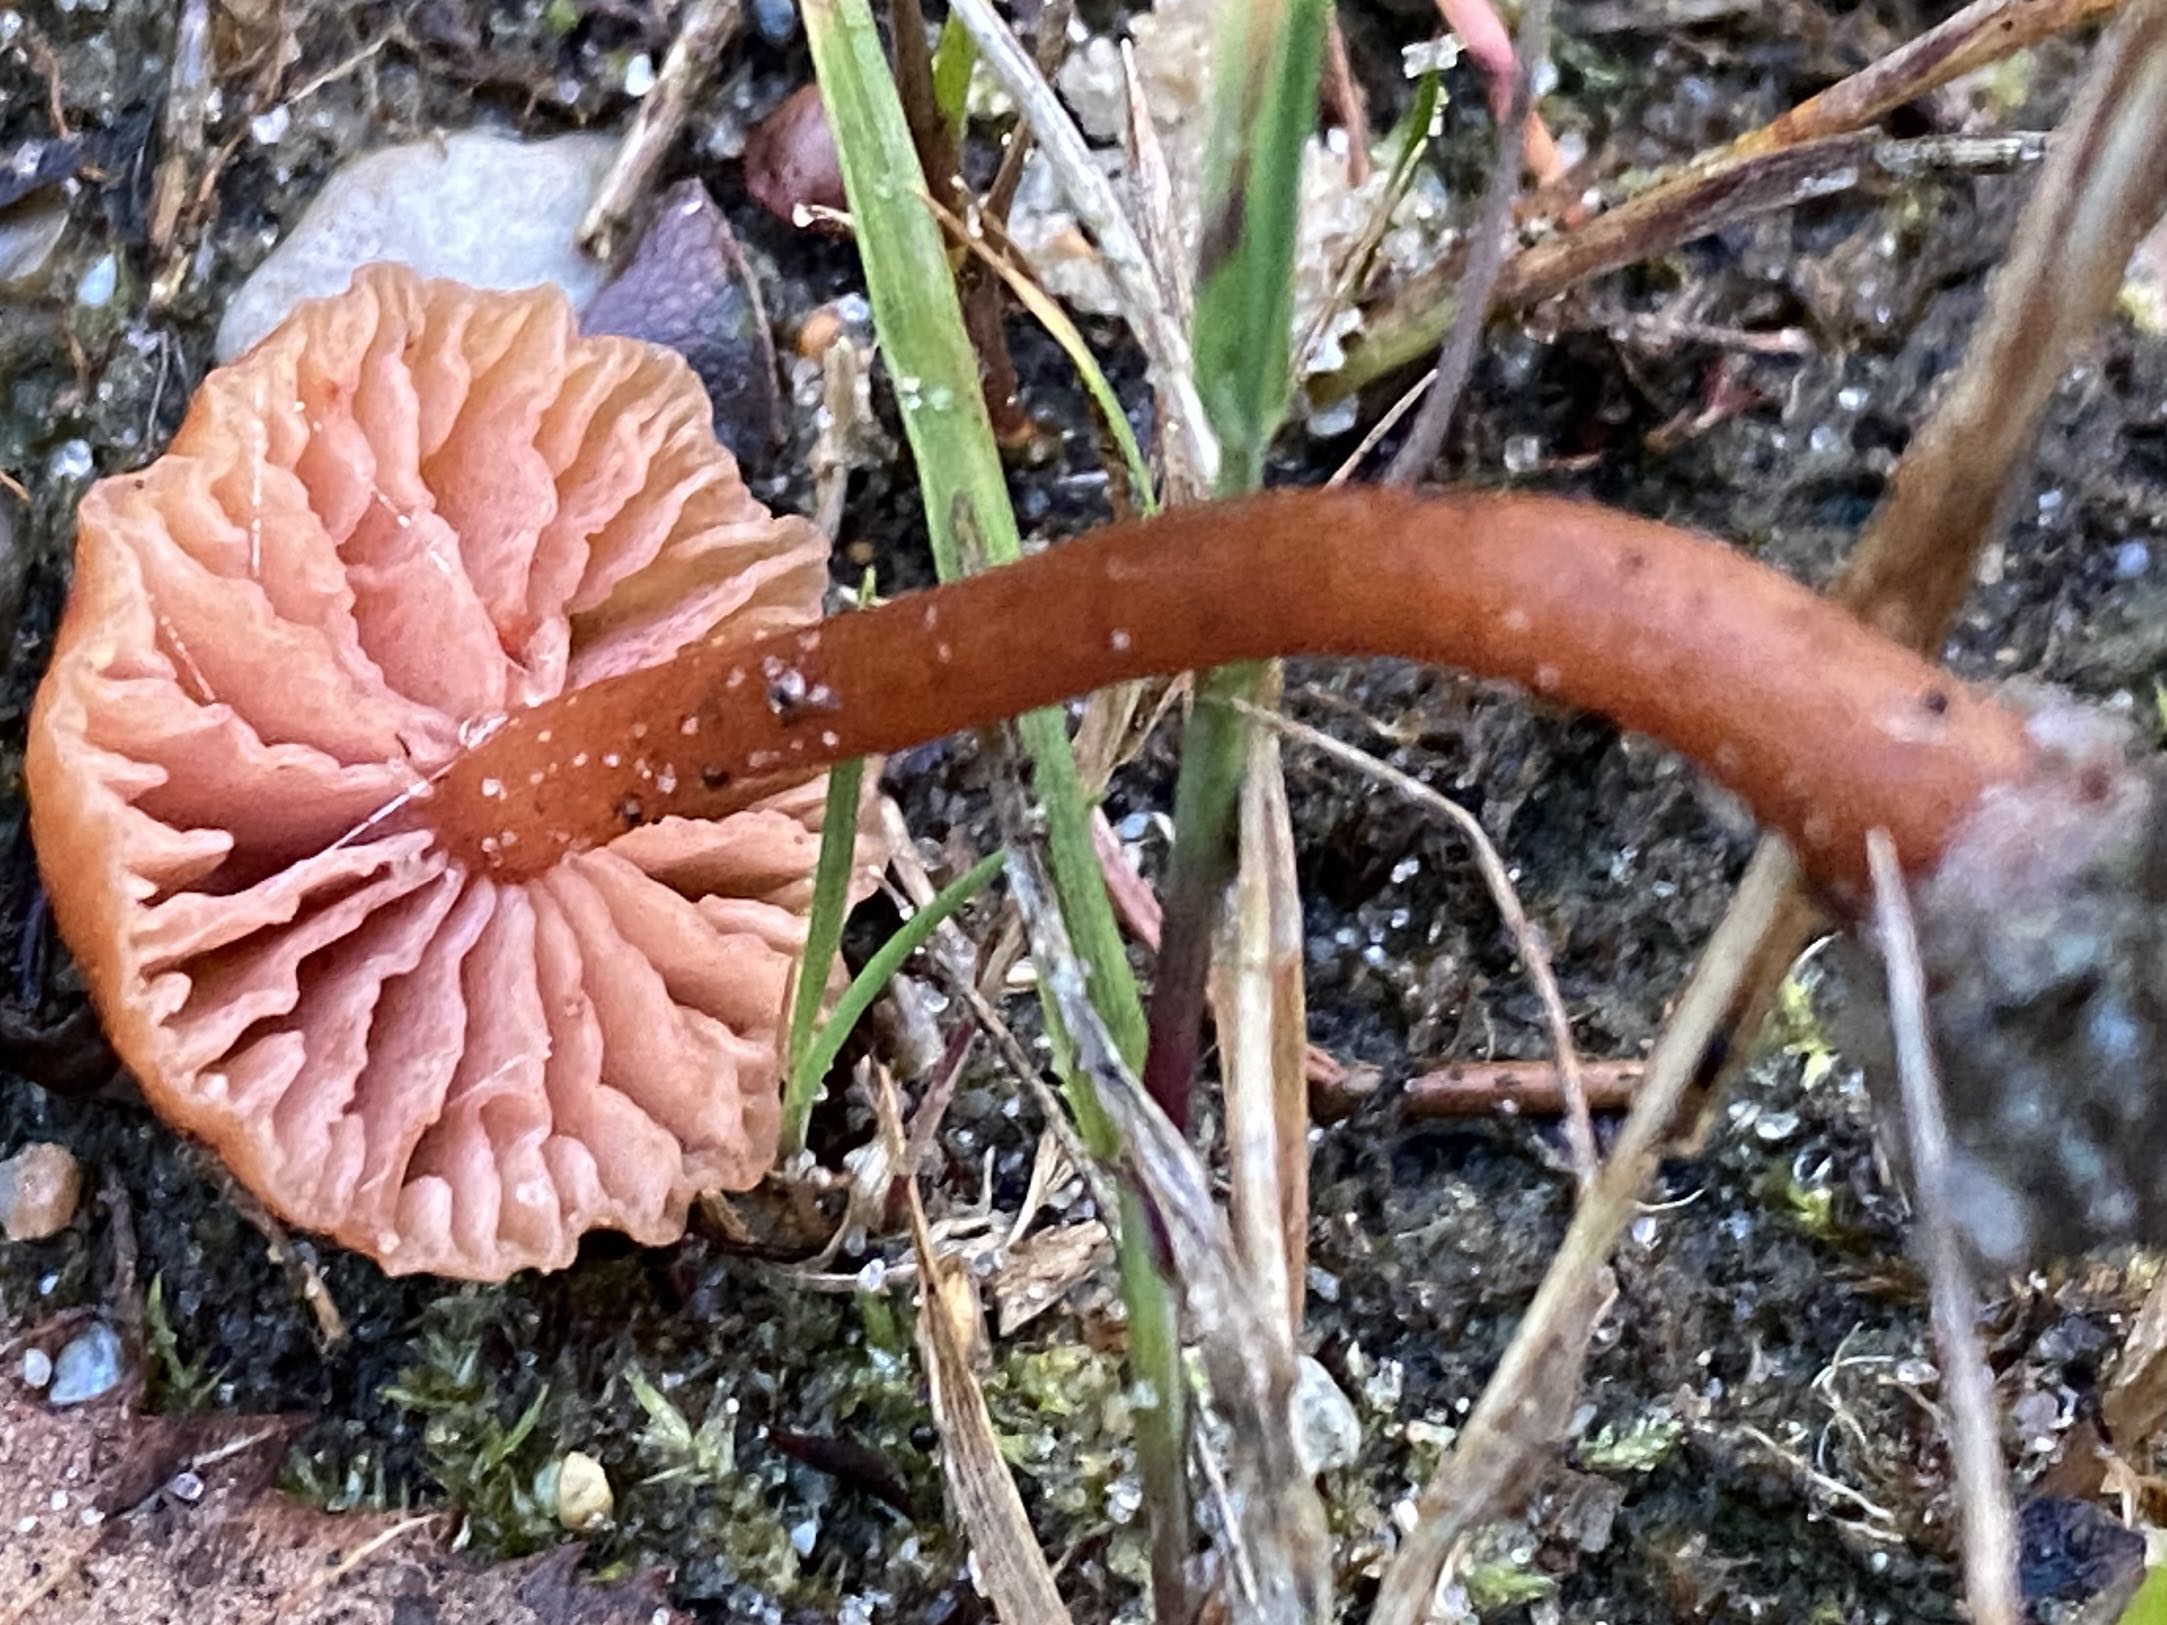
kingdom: Fungi
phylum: Basidiomycota
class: Agaricomycetes
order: Agaricales
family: Hydnangiaceae
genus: Laccaria
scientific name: Laccaria laccata
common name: rød ametysthat
